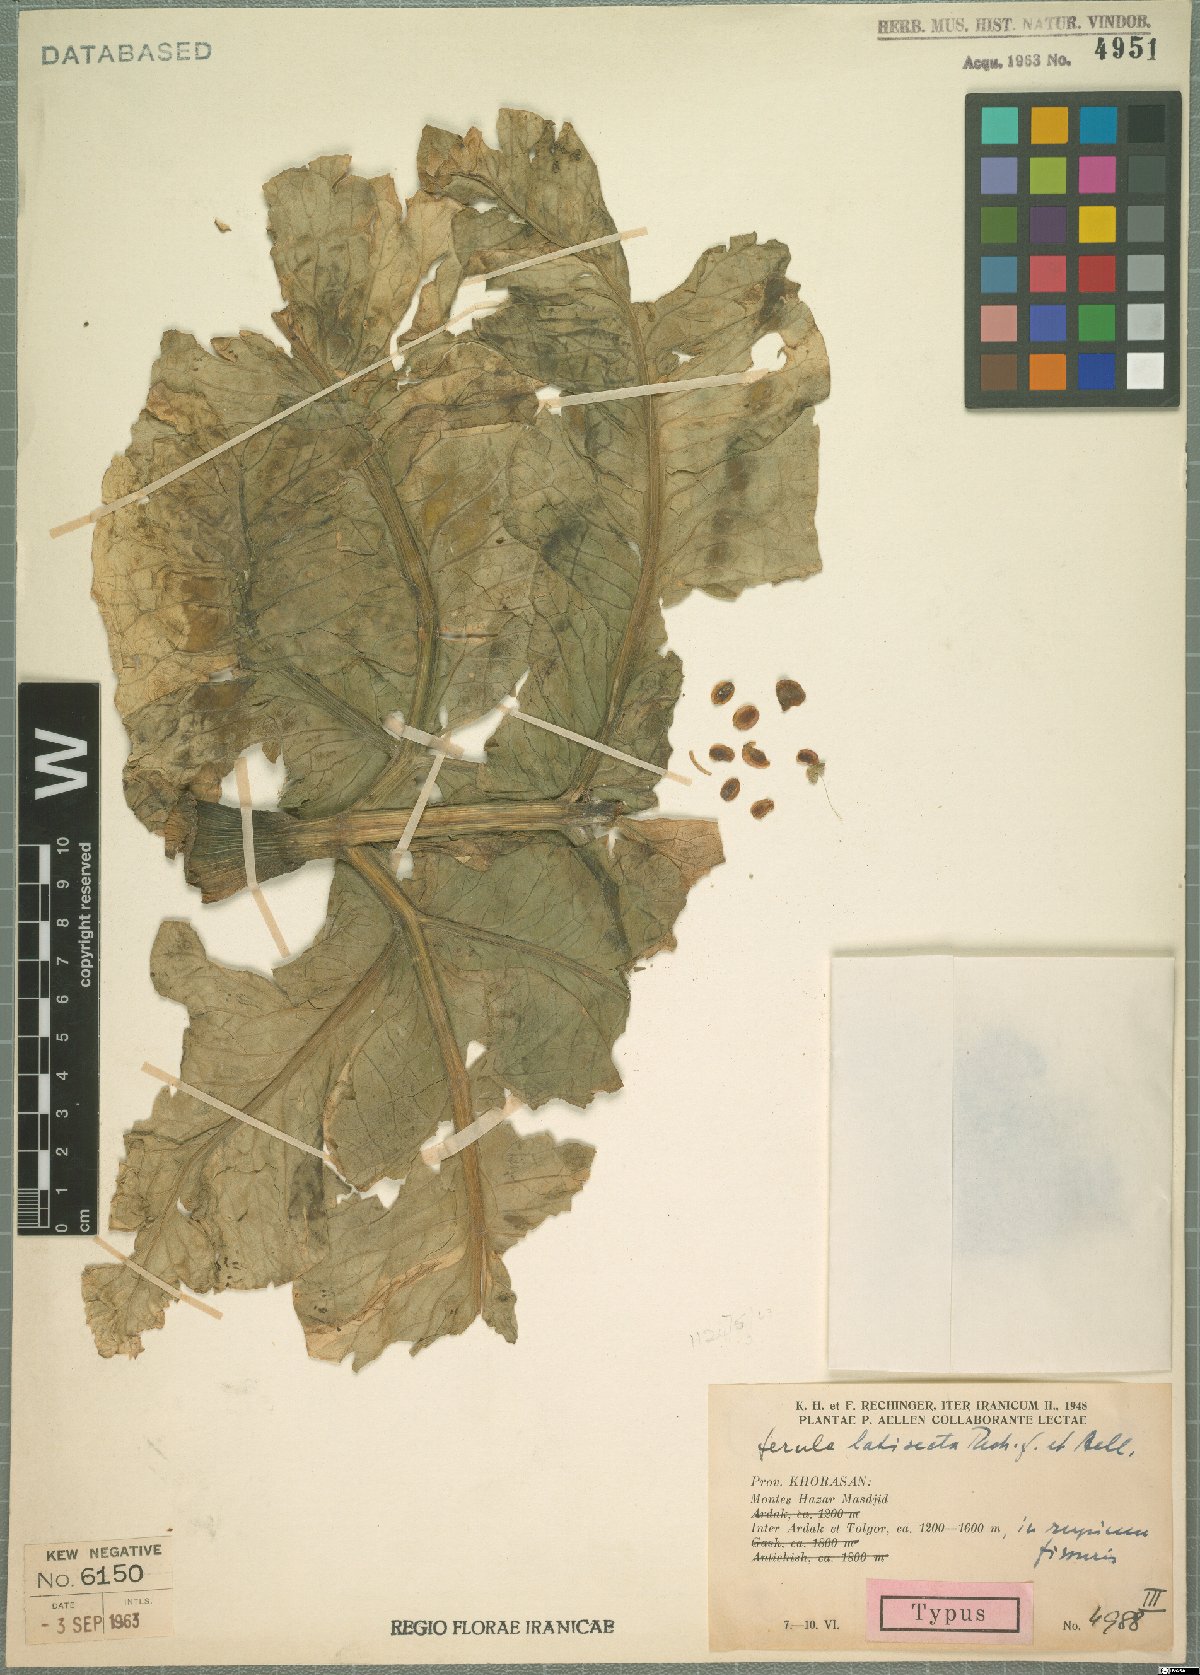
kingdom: Plantae
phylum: Tracheophyta
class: Magnoliopsida
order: Apiales
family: Apiaceae
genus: Ferula
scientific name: Ferula latisecta
